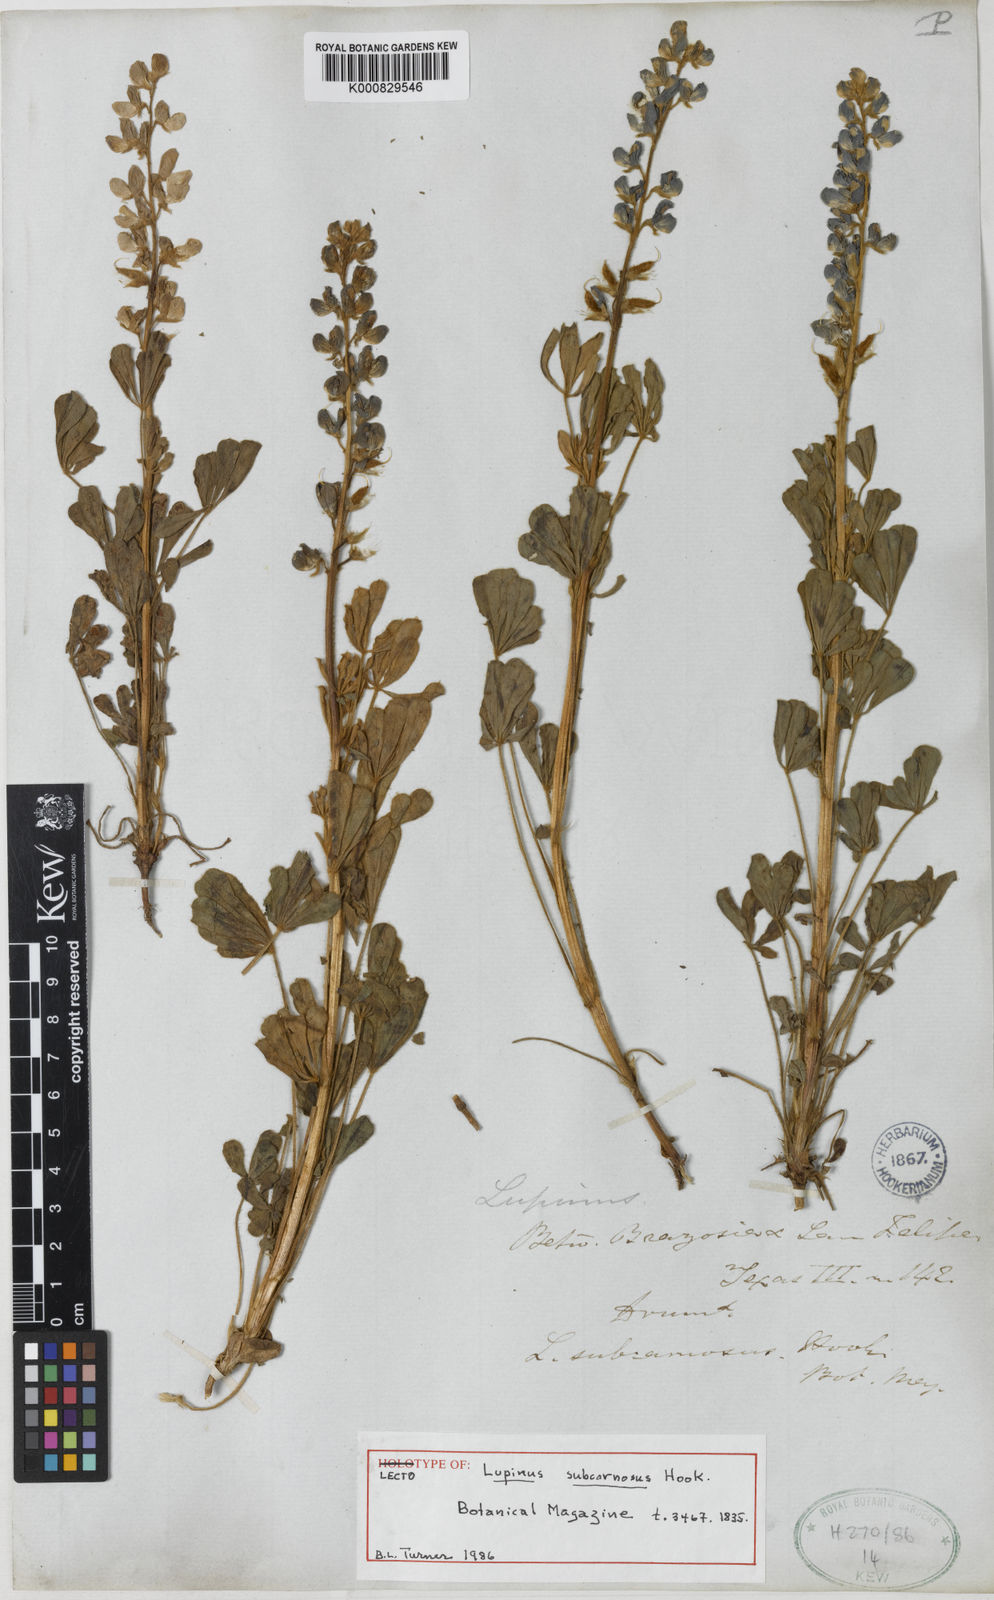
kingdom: Plantae
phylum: Tracheophyta
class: Magnoliopsida
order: Fabales
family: Fabaceae
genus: Lupinus
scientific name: Lupinus subcarnosus
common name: Texas bluebonnet
